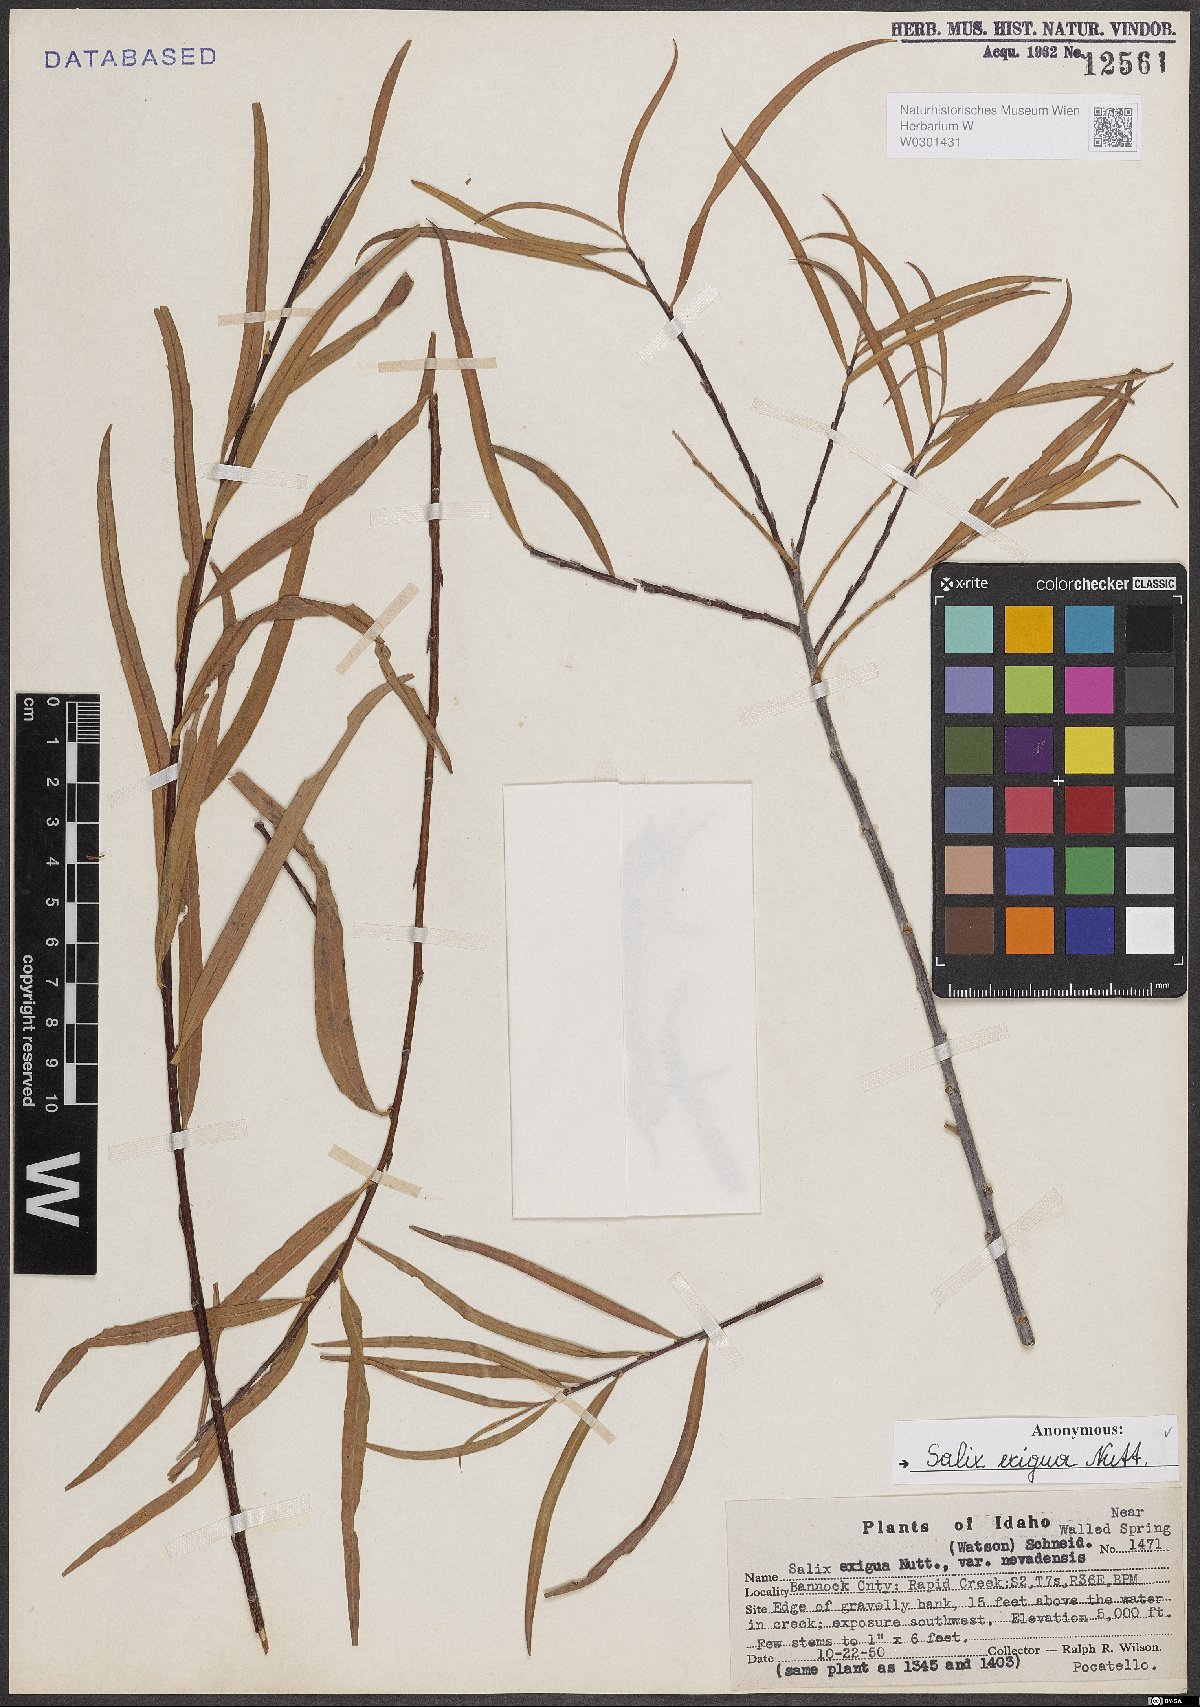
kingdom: Plantae
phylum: Tracheophyta
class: Magnoliopsida
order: Malpighiales
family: Salicaceae
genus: Salix
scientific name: Salix exigua
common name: Coyote willow
